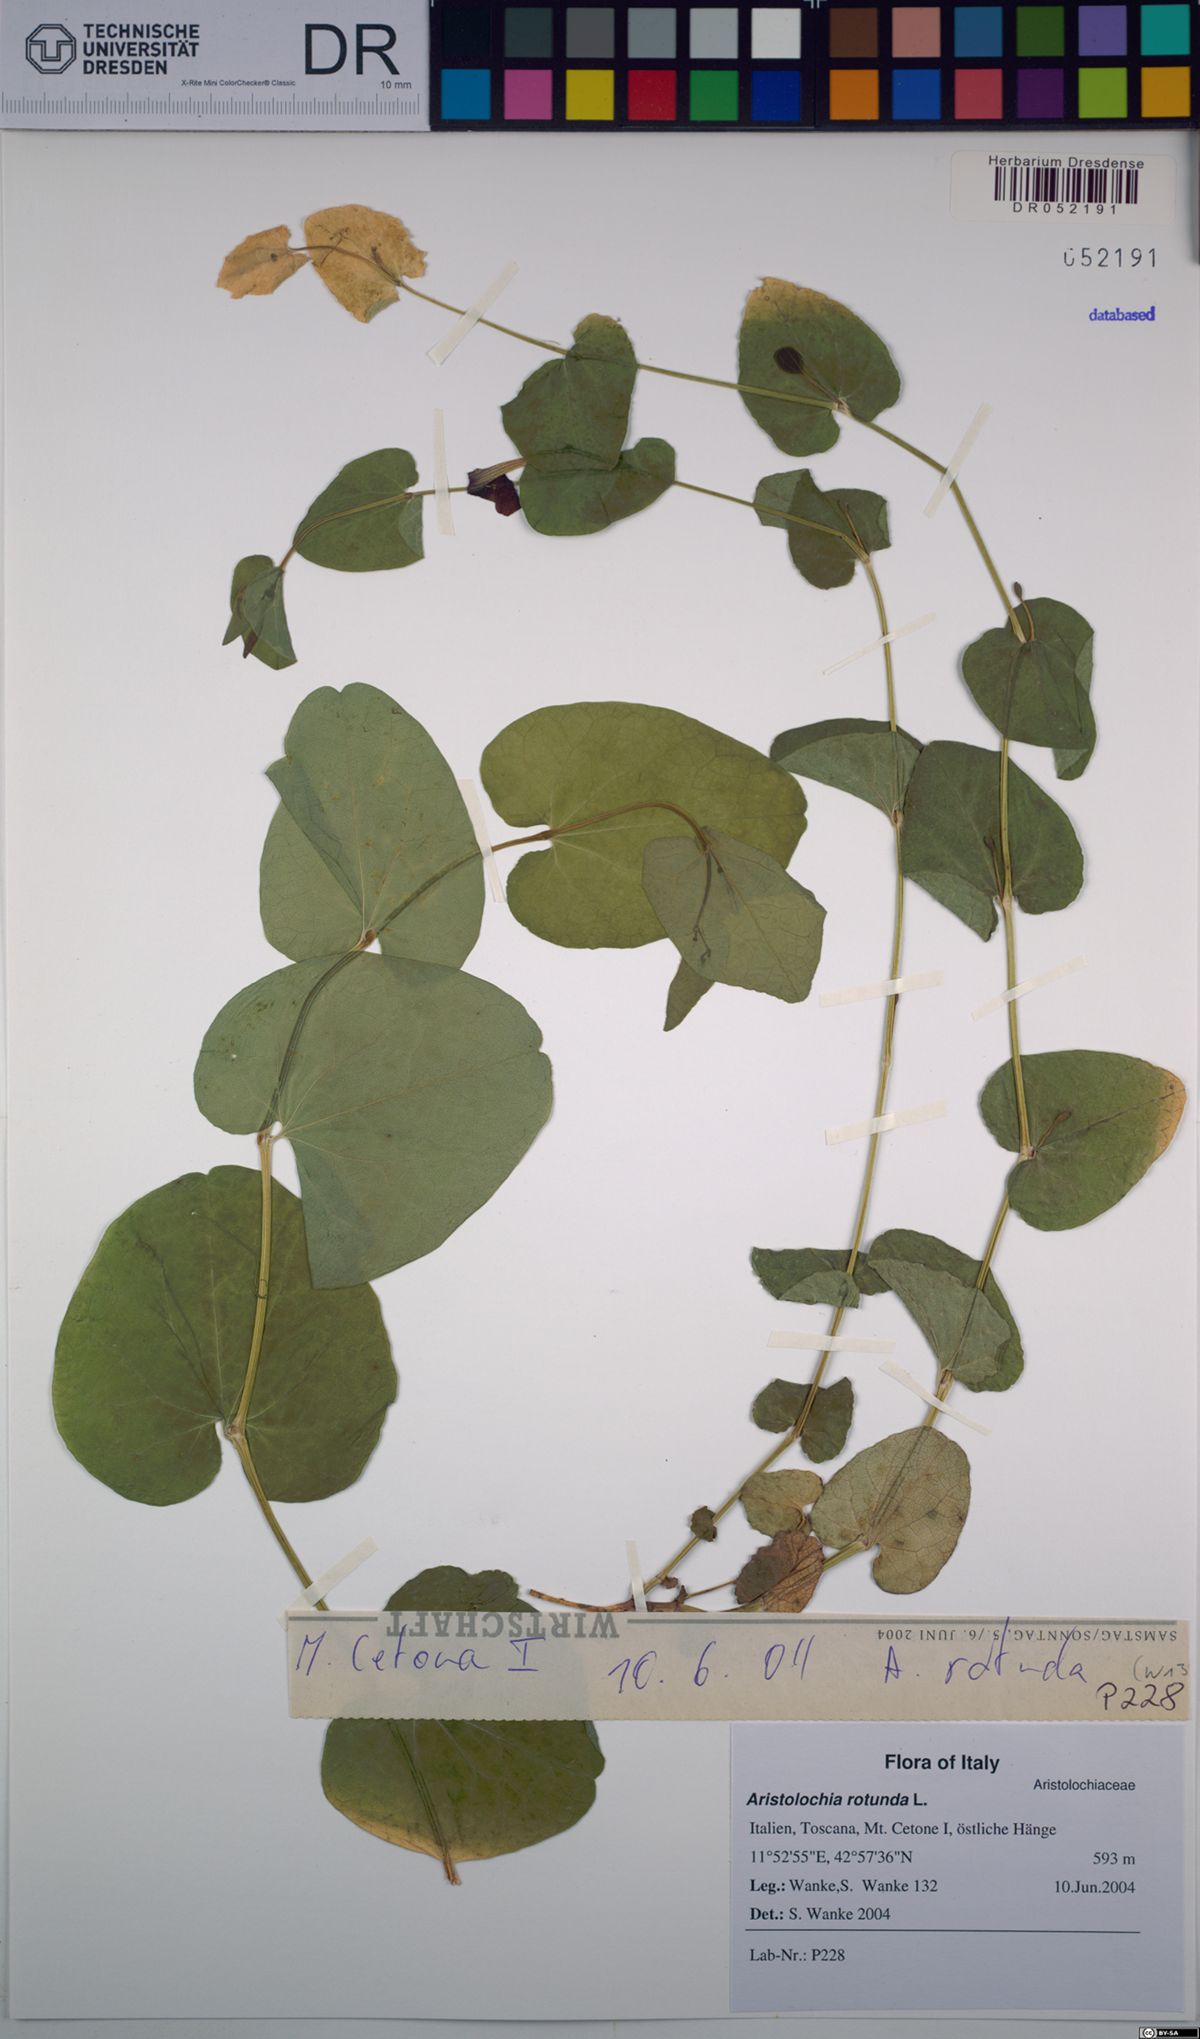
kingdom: Plantae
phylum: Tracheophyta
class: Magnoliopsida
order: Piperales
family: Aristolochiaceae
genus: Aristolochia
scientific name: Aristolochia rotunda
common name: Smearwort
